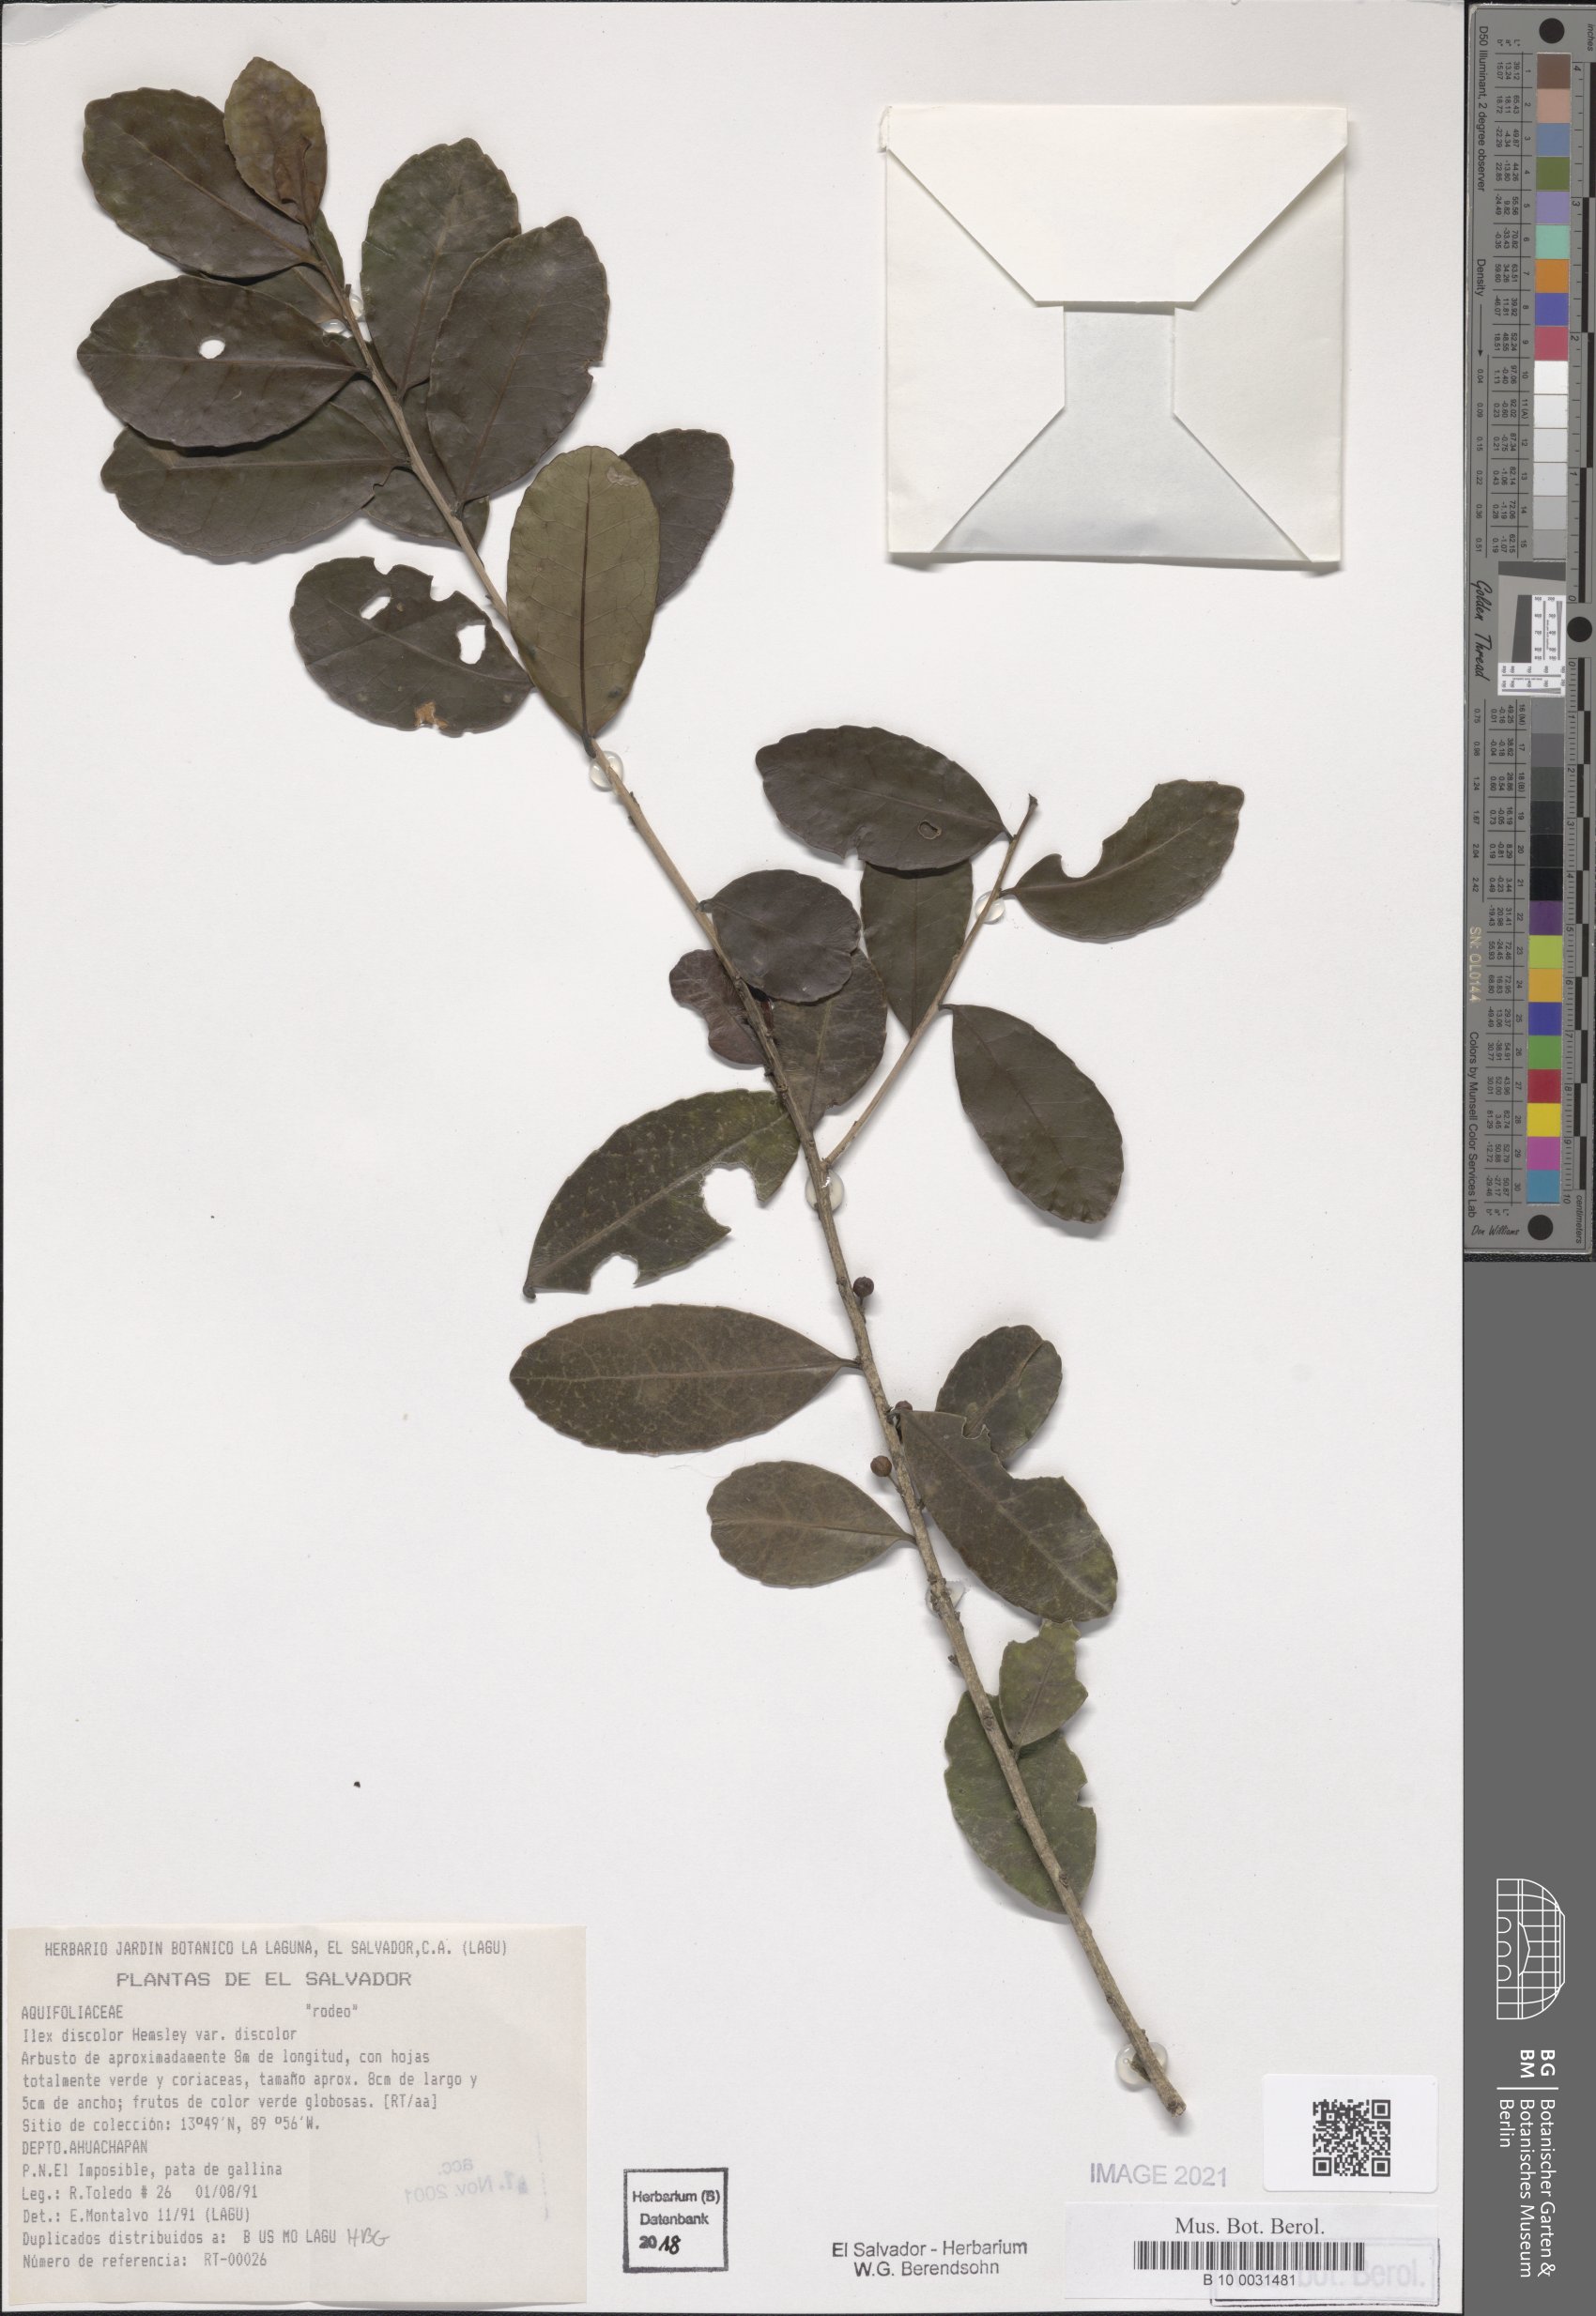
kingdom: Plantae
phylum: Tracheophyta
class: Magnoliopsida
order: Aquifoliales
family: Aquifoliaceae
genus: Ilex
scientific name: Ilex discolor
